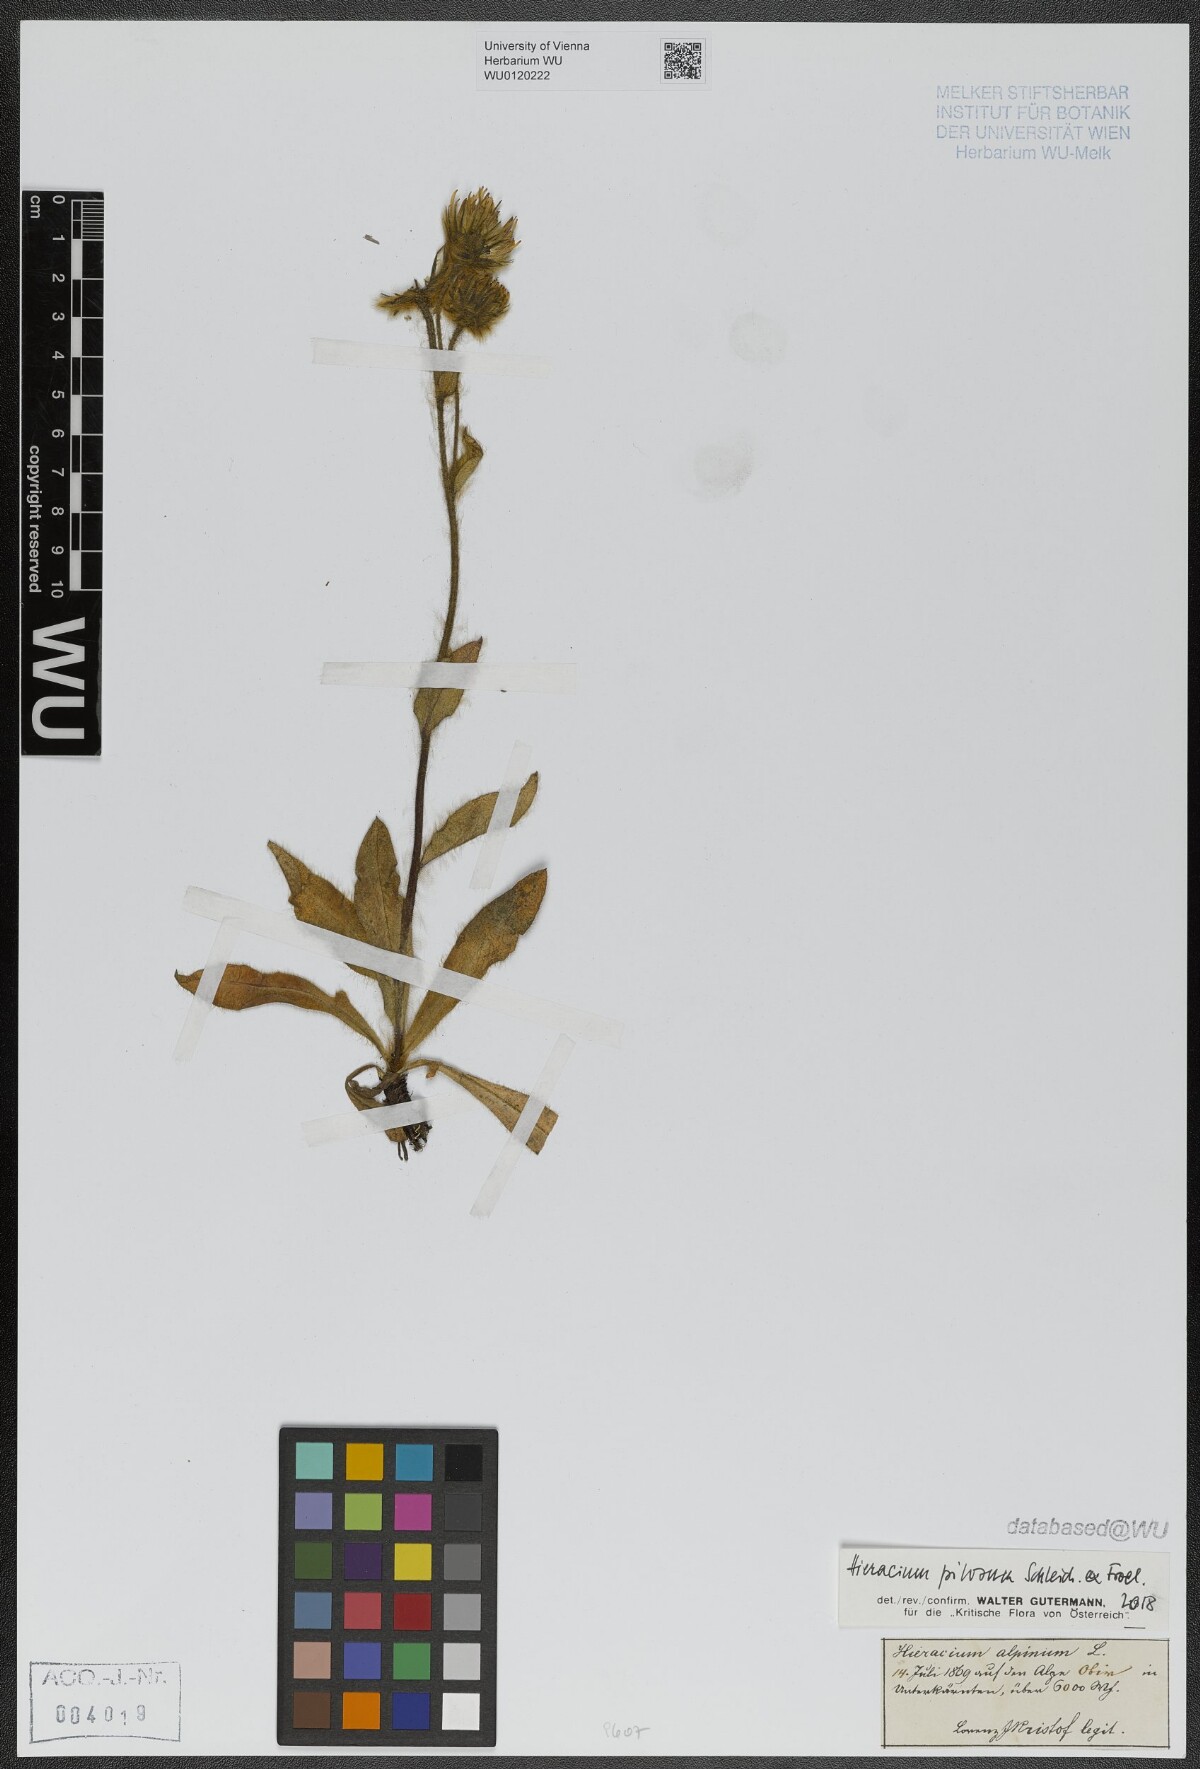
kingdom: Plantae
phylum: Tracheophyta
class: Magnoliopsida
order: Asterales
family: Asteraceae
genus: Hieracium
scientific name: Hieracium pilosum
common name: Fimbriate-pitted hawkweed
